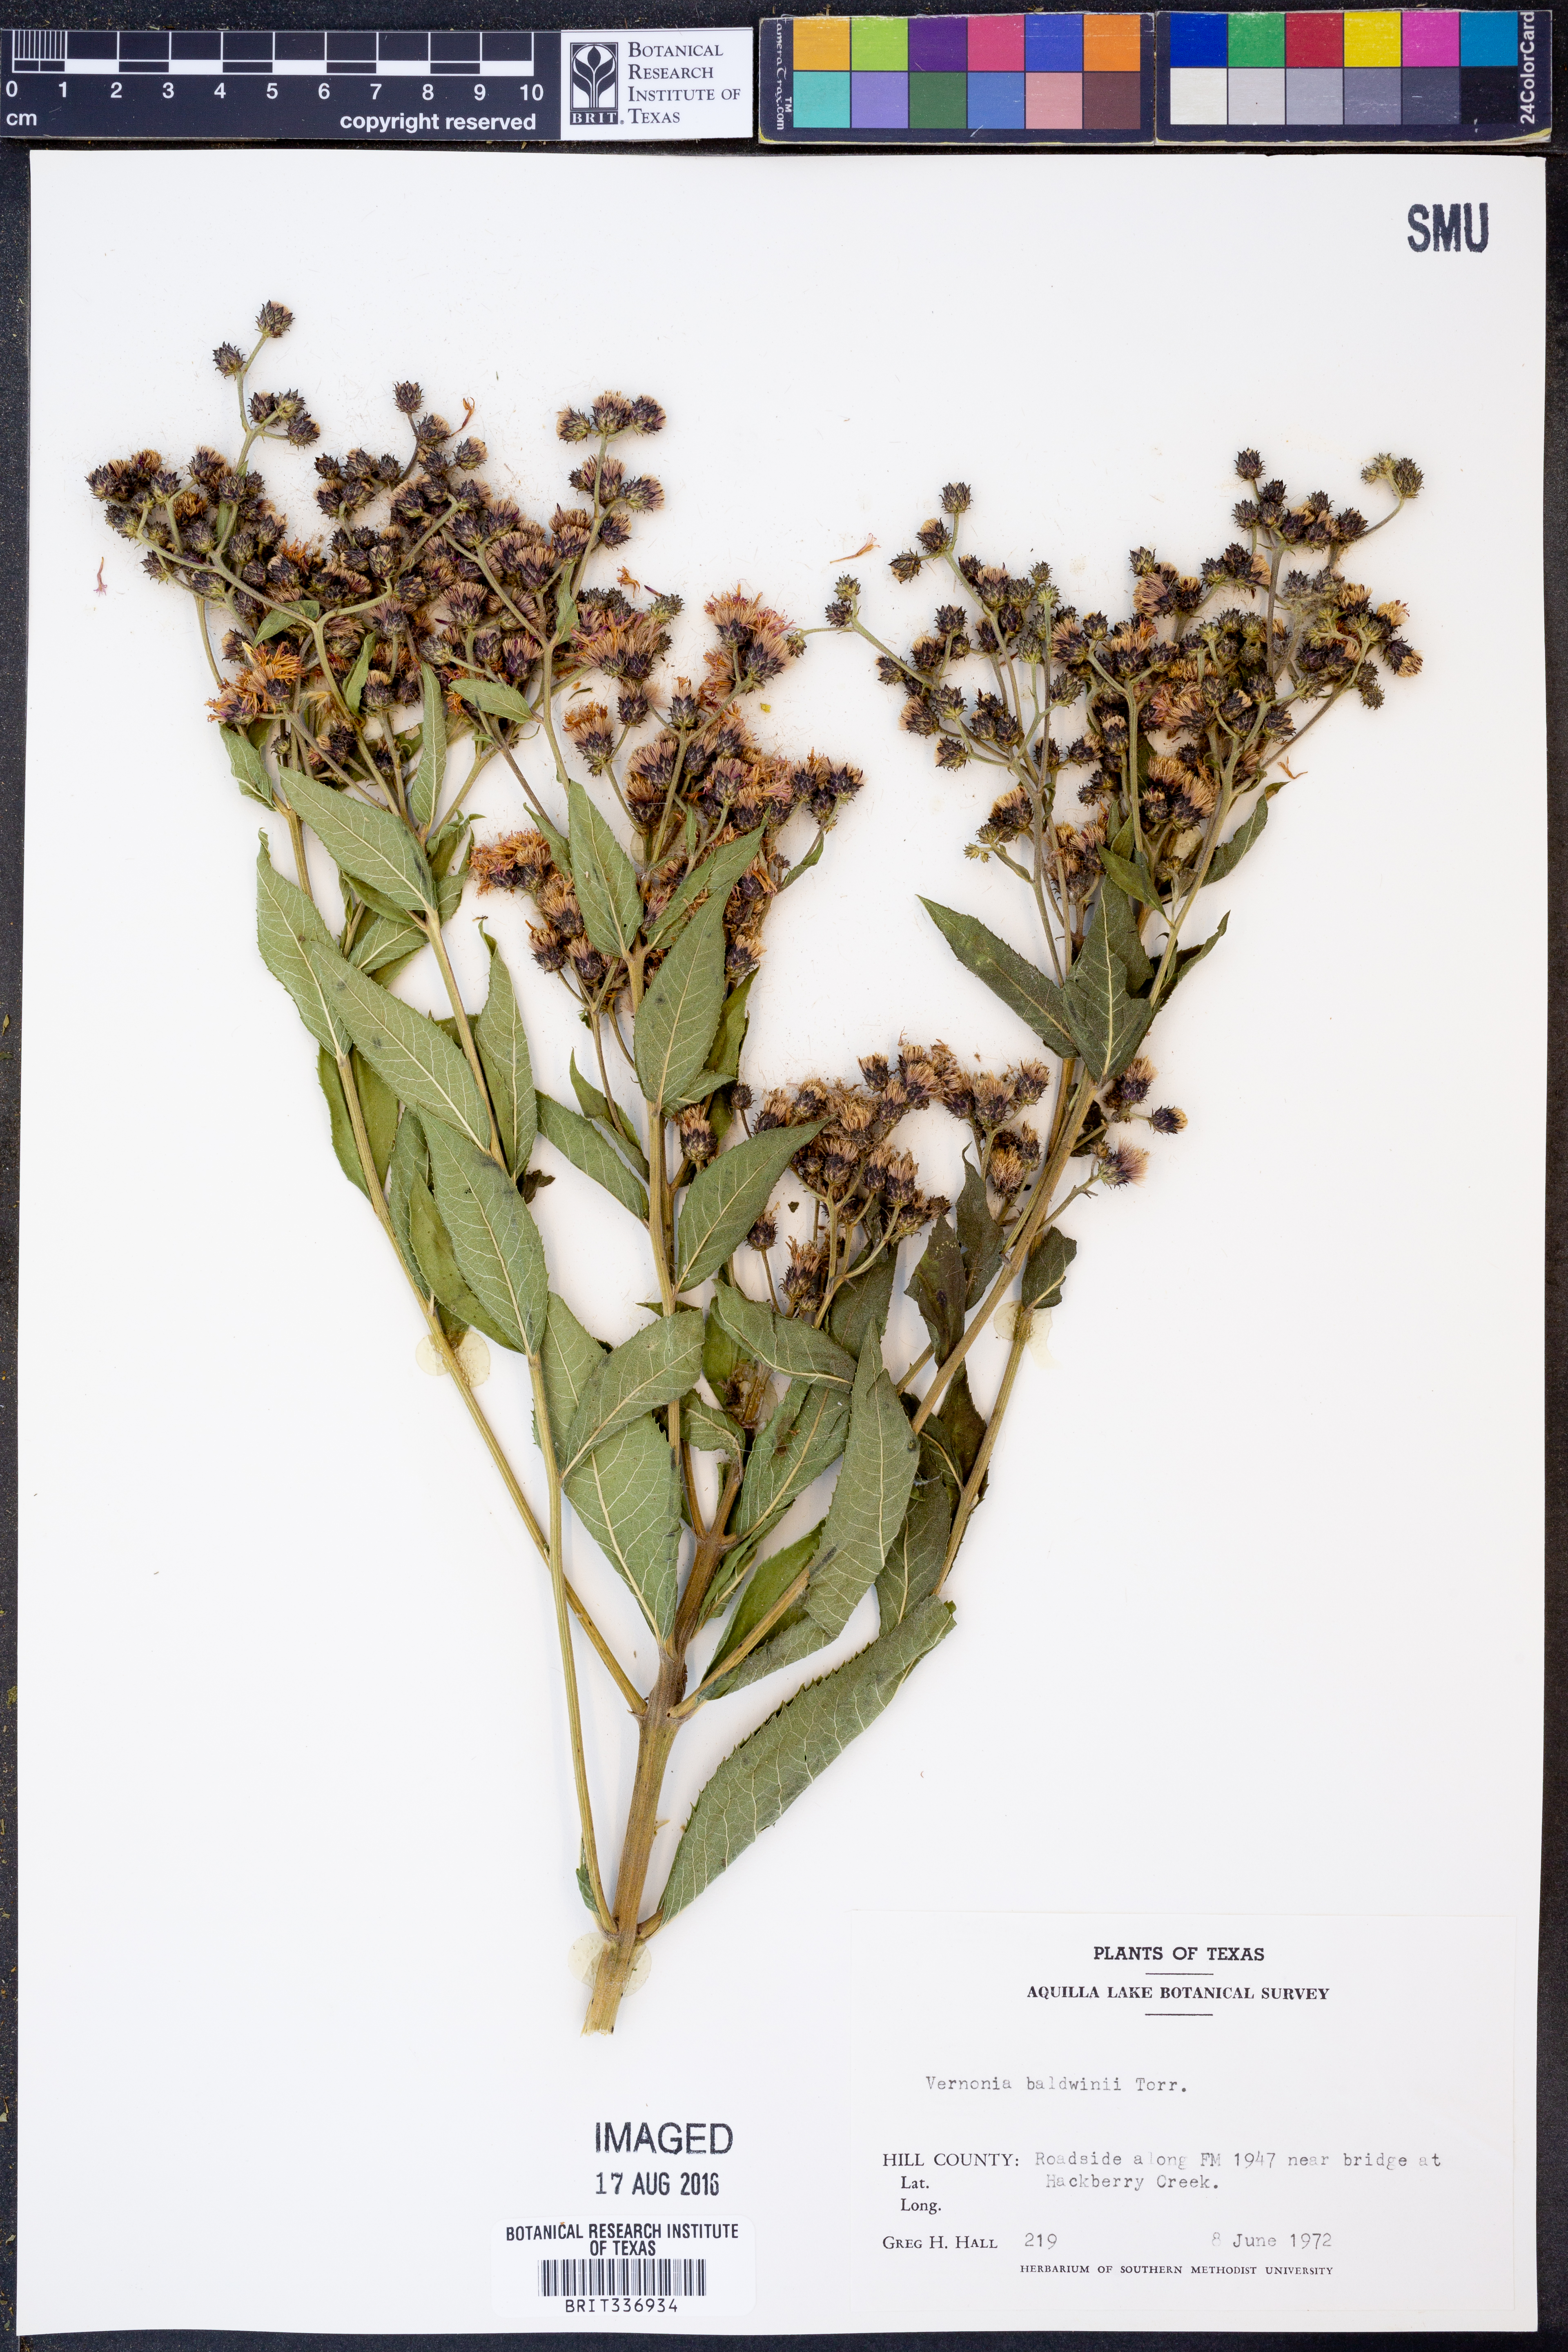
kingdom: Plantae
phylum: Tracheophyta
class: Magnoliopsida
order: Asterales
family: Asteraceae
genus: Vernonia
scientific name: Vernonia baldwinii
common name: Western ironweed
